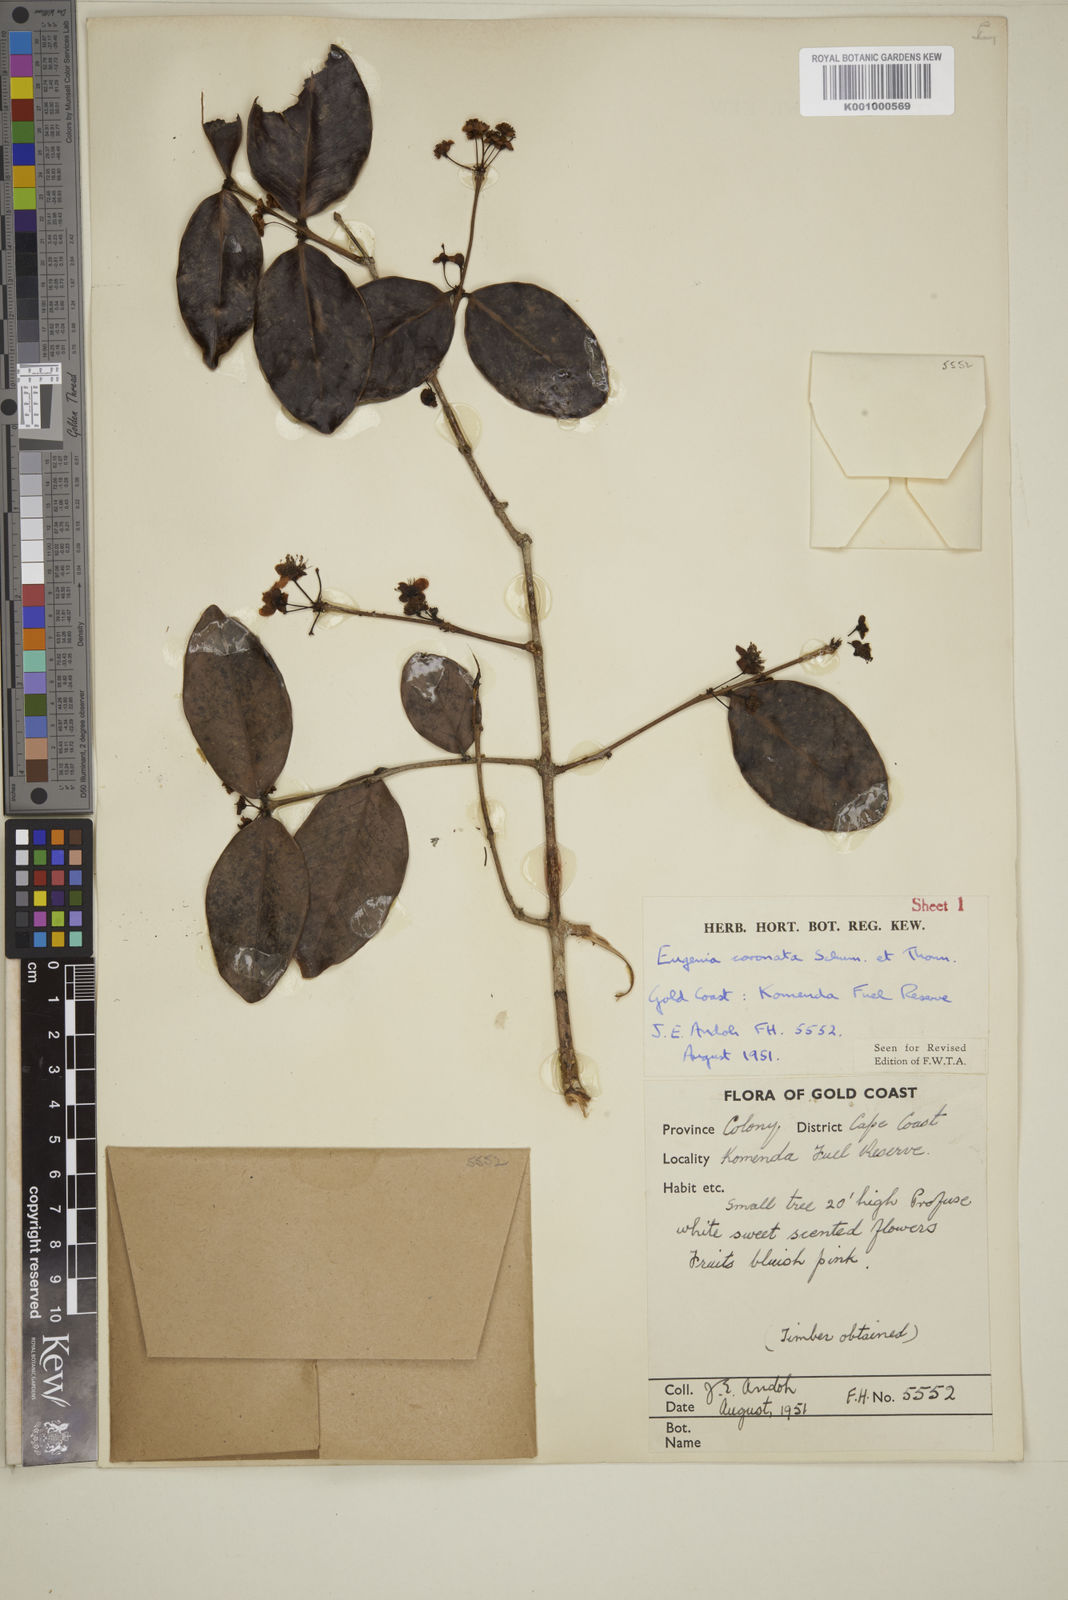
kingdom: Plantae
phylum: Tracheophyta
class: Magnoliopsida
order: Myrtales
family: Myrtaceae
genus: Eugenia
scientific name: Eugenia coronata
